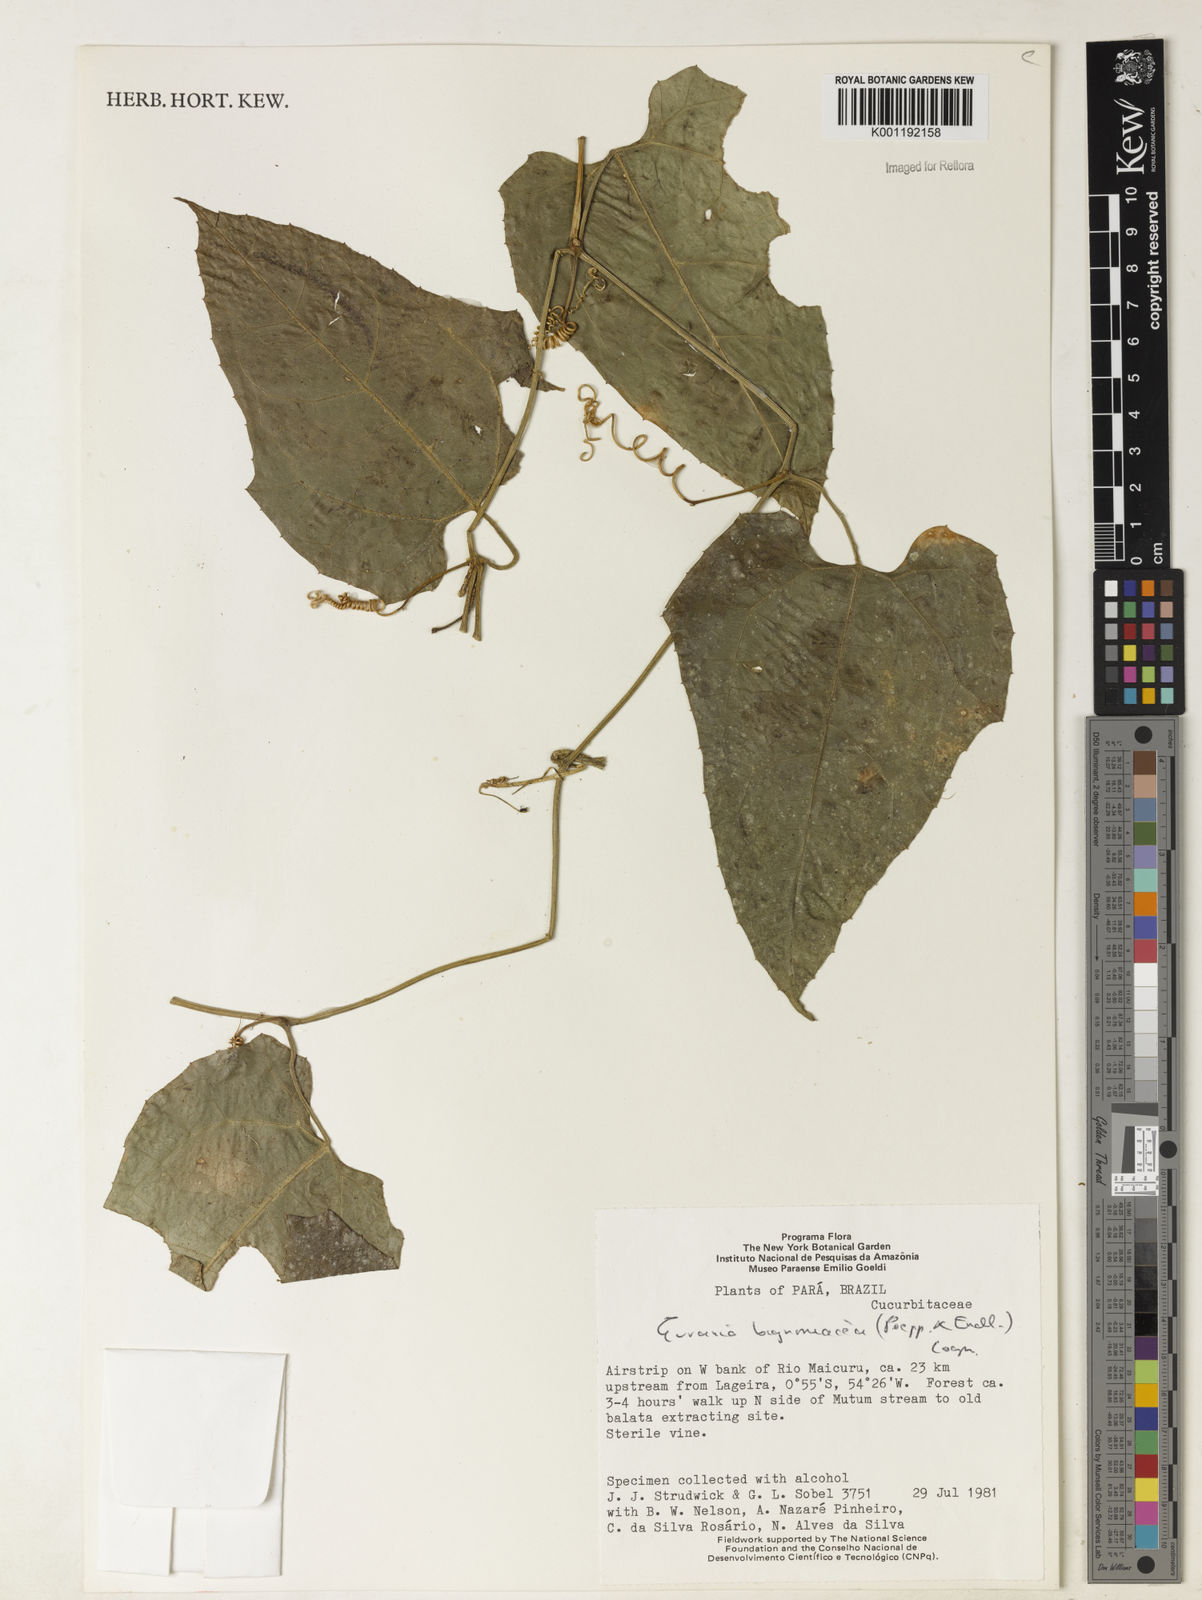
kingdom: Plantae
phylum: Tracheophyta
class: Magnoliopsida
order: Cucurbitales
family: Cucurbitaceae
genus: Gurania
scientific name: Gurania bignoniacea
